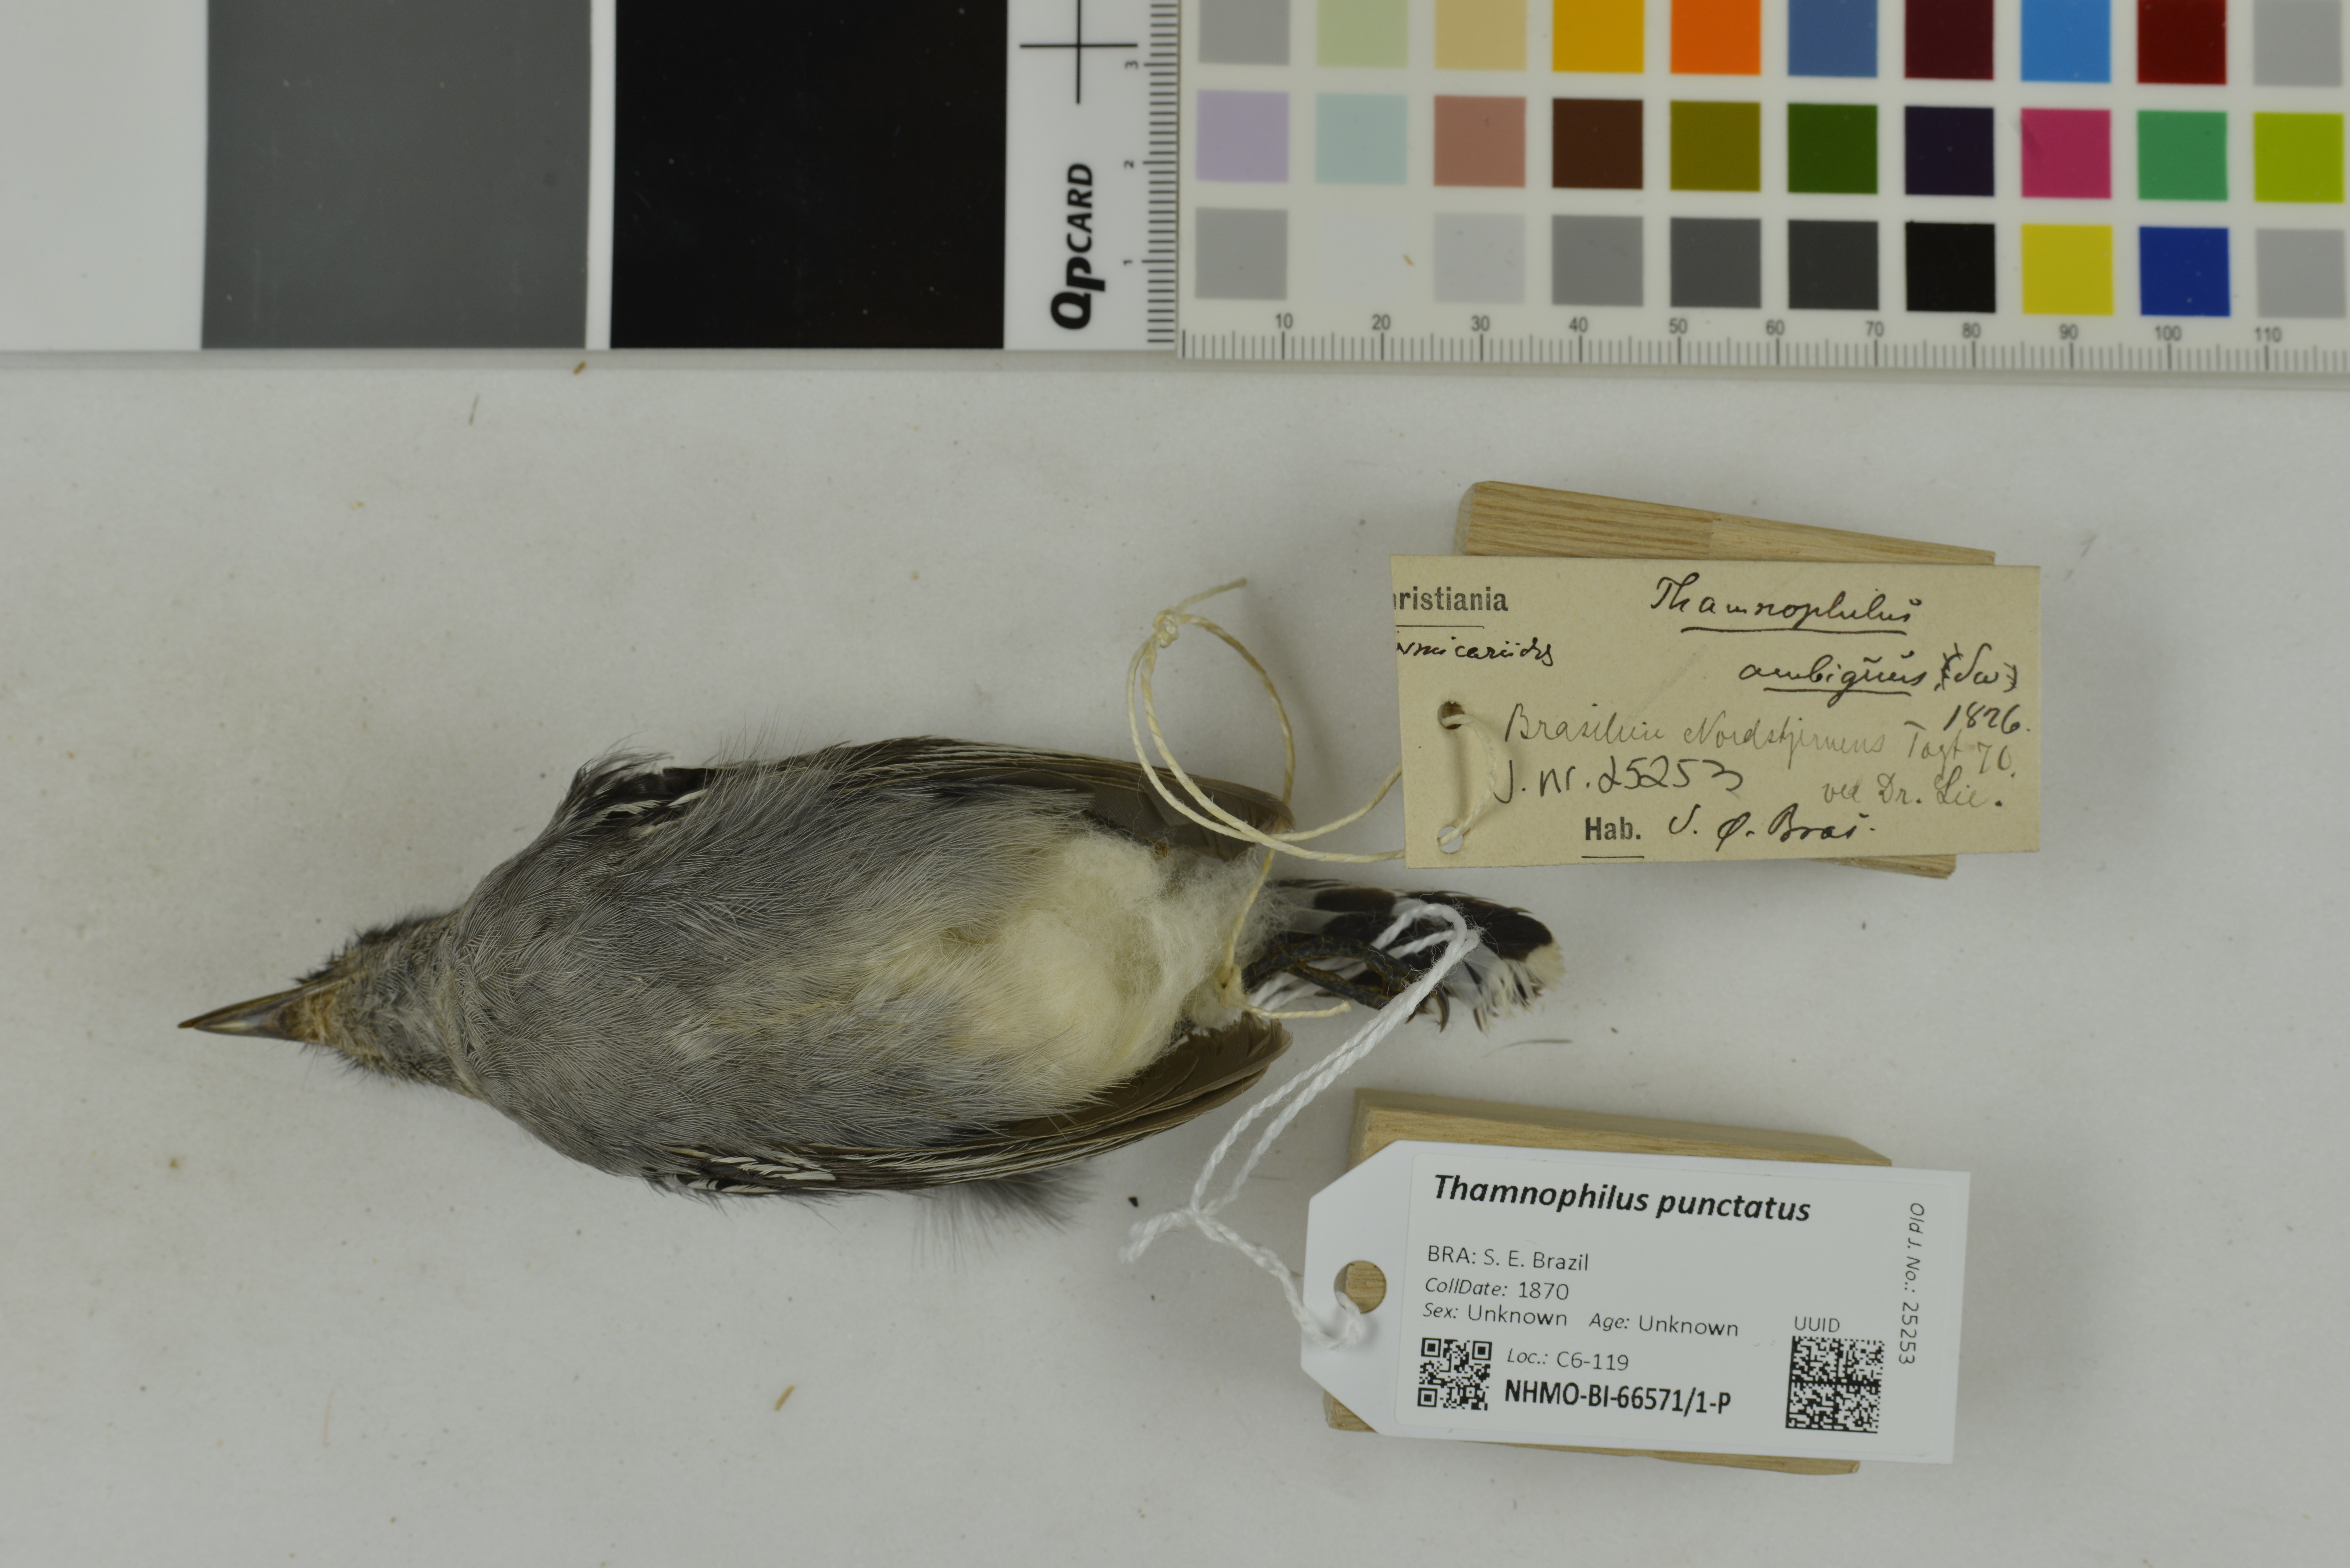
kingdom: Animalia
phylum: Chordata
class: Aves
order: Passeriformes
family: Thamnophilidae
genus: Thamnophilus
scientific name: Thamnophilus punctatus
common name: Northern slaty antshrike
